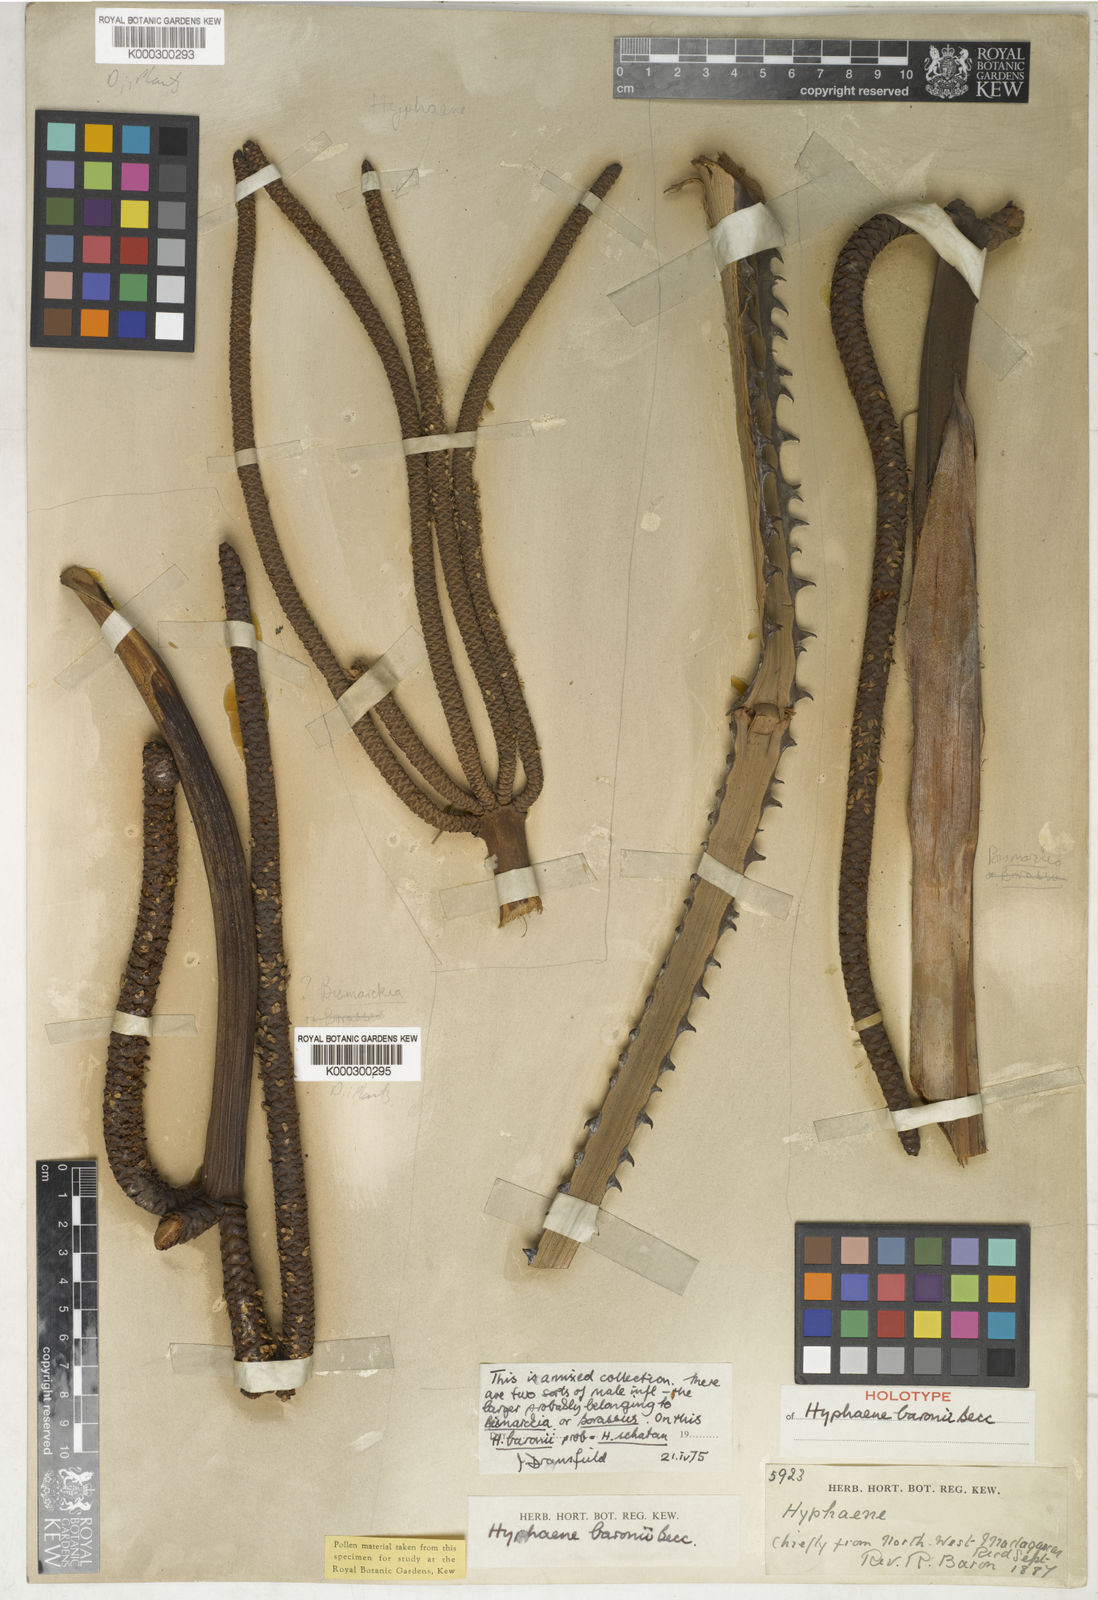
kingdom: Plantae
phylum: Tracheophyta
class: Liliopsida
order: Arecales
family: Arecaceae
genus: Dypsis
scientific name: Dypsis baronii
